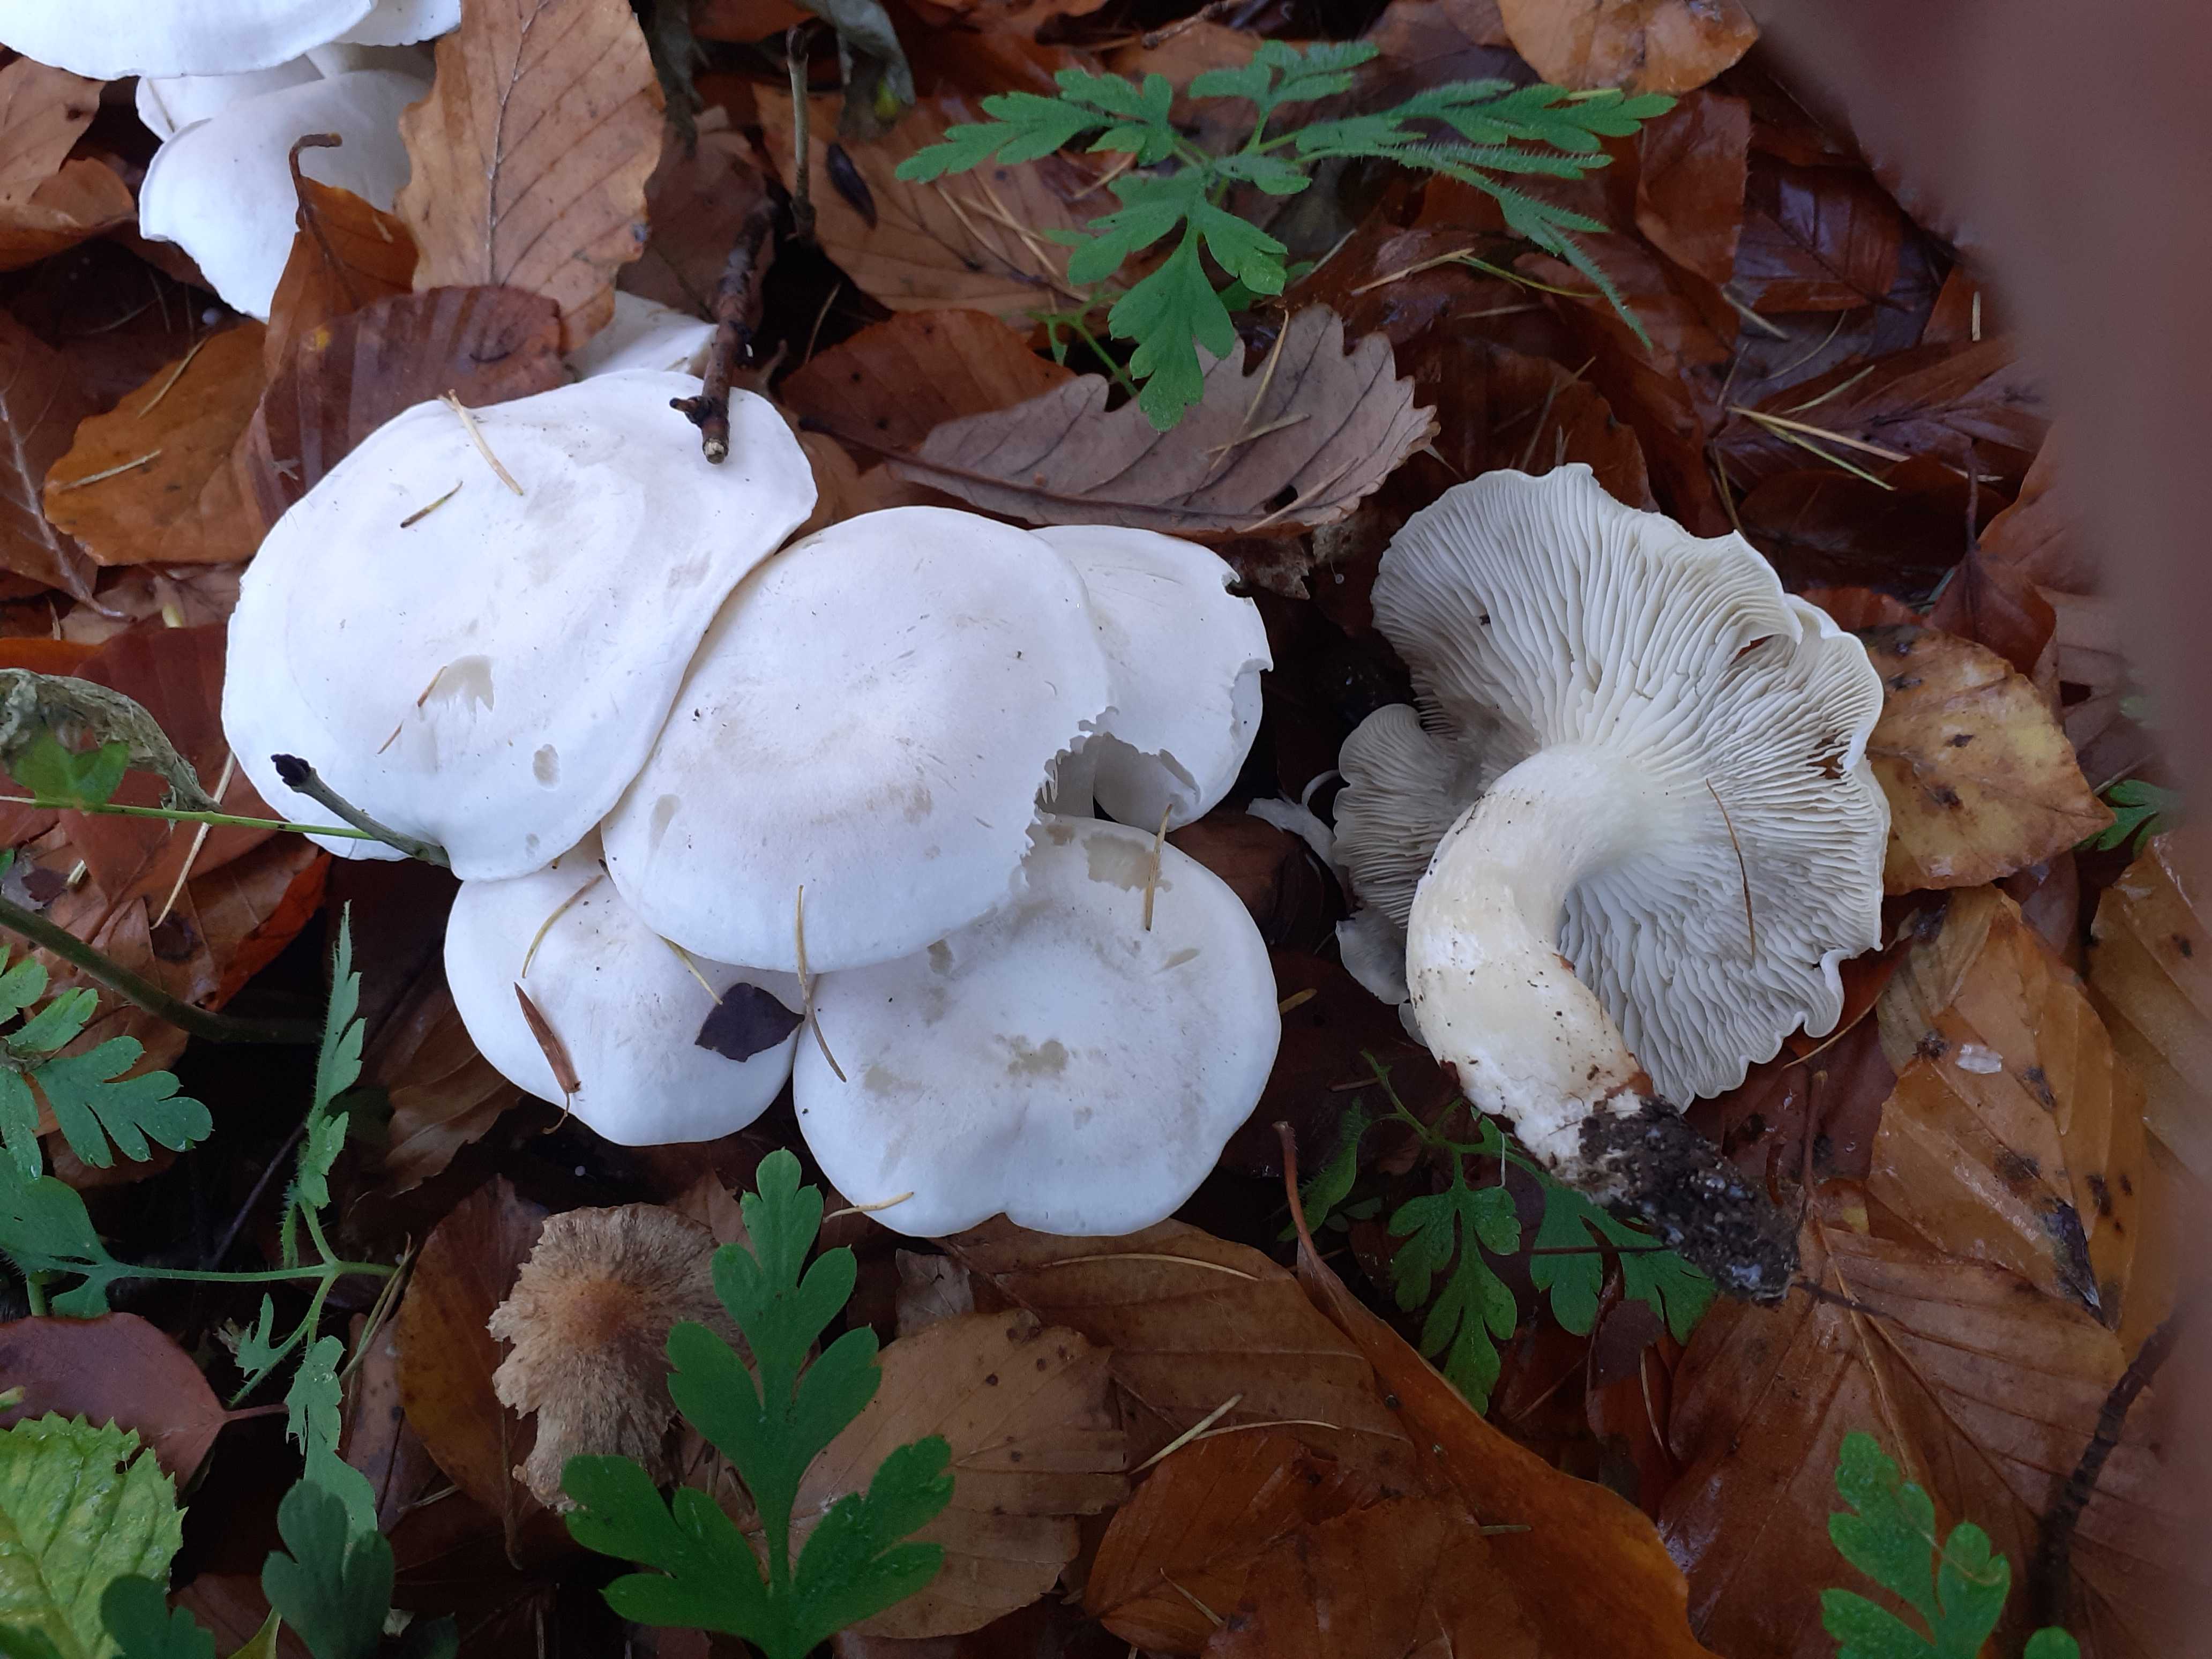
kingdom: Fungi
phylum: Basidiomycota
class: Agaricomycetes
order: Agaricales
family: Tricholomataceae
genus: Clitocybe
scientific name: Clitocybe phyllophila
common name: løv-tragthat
